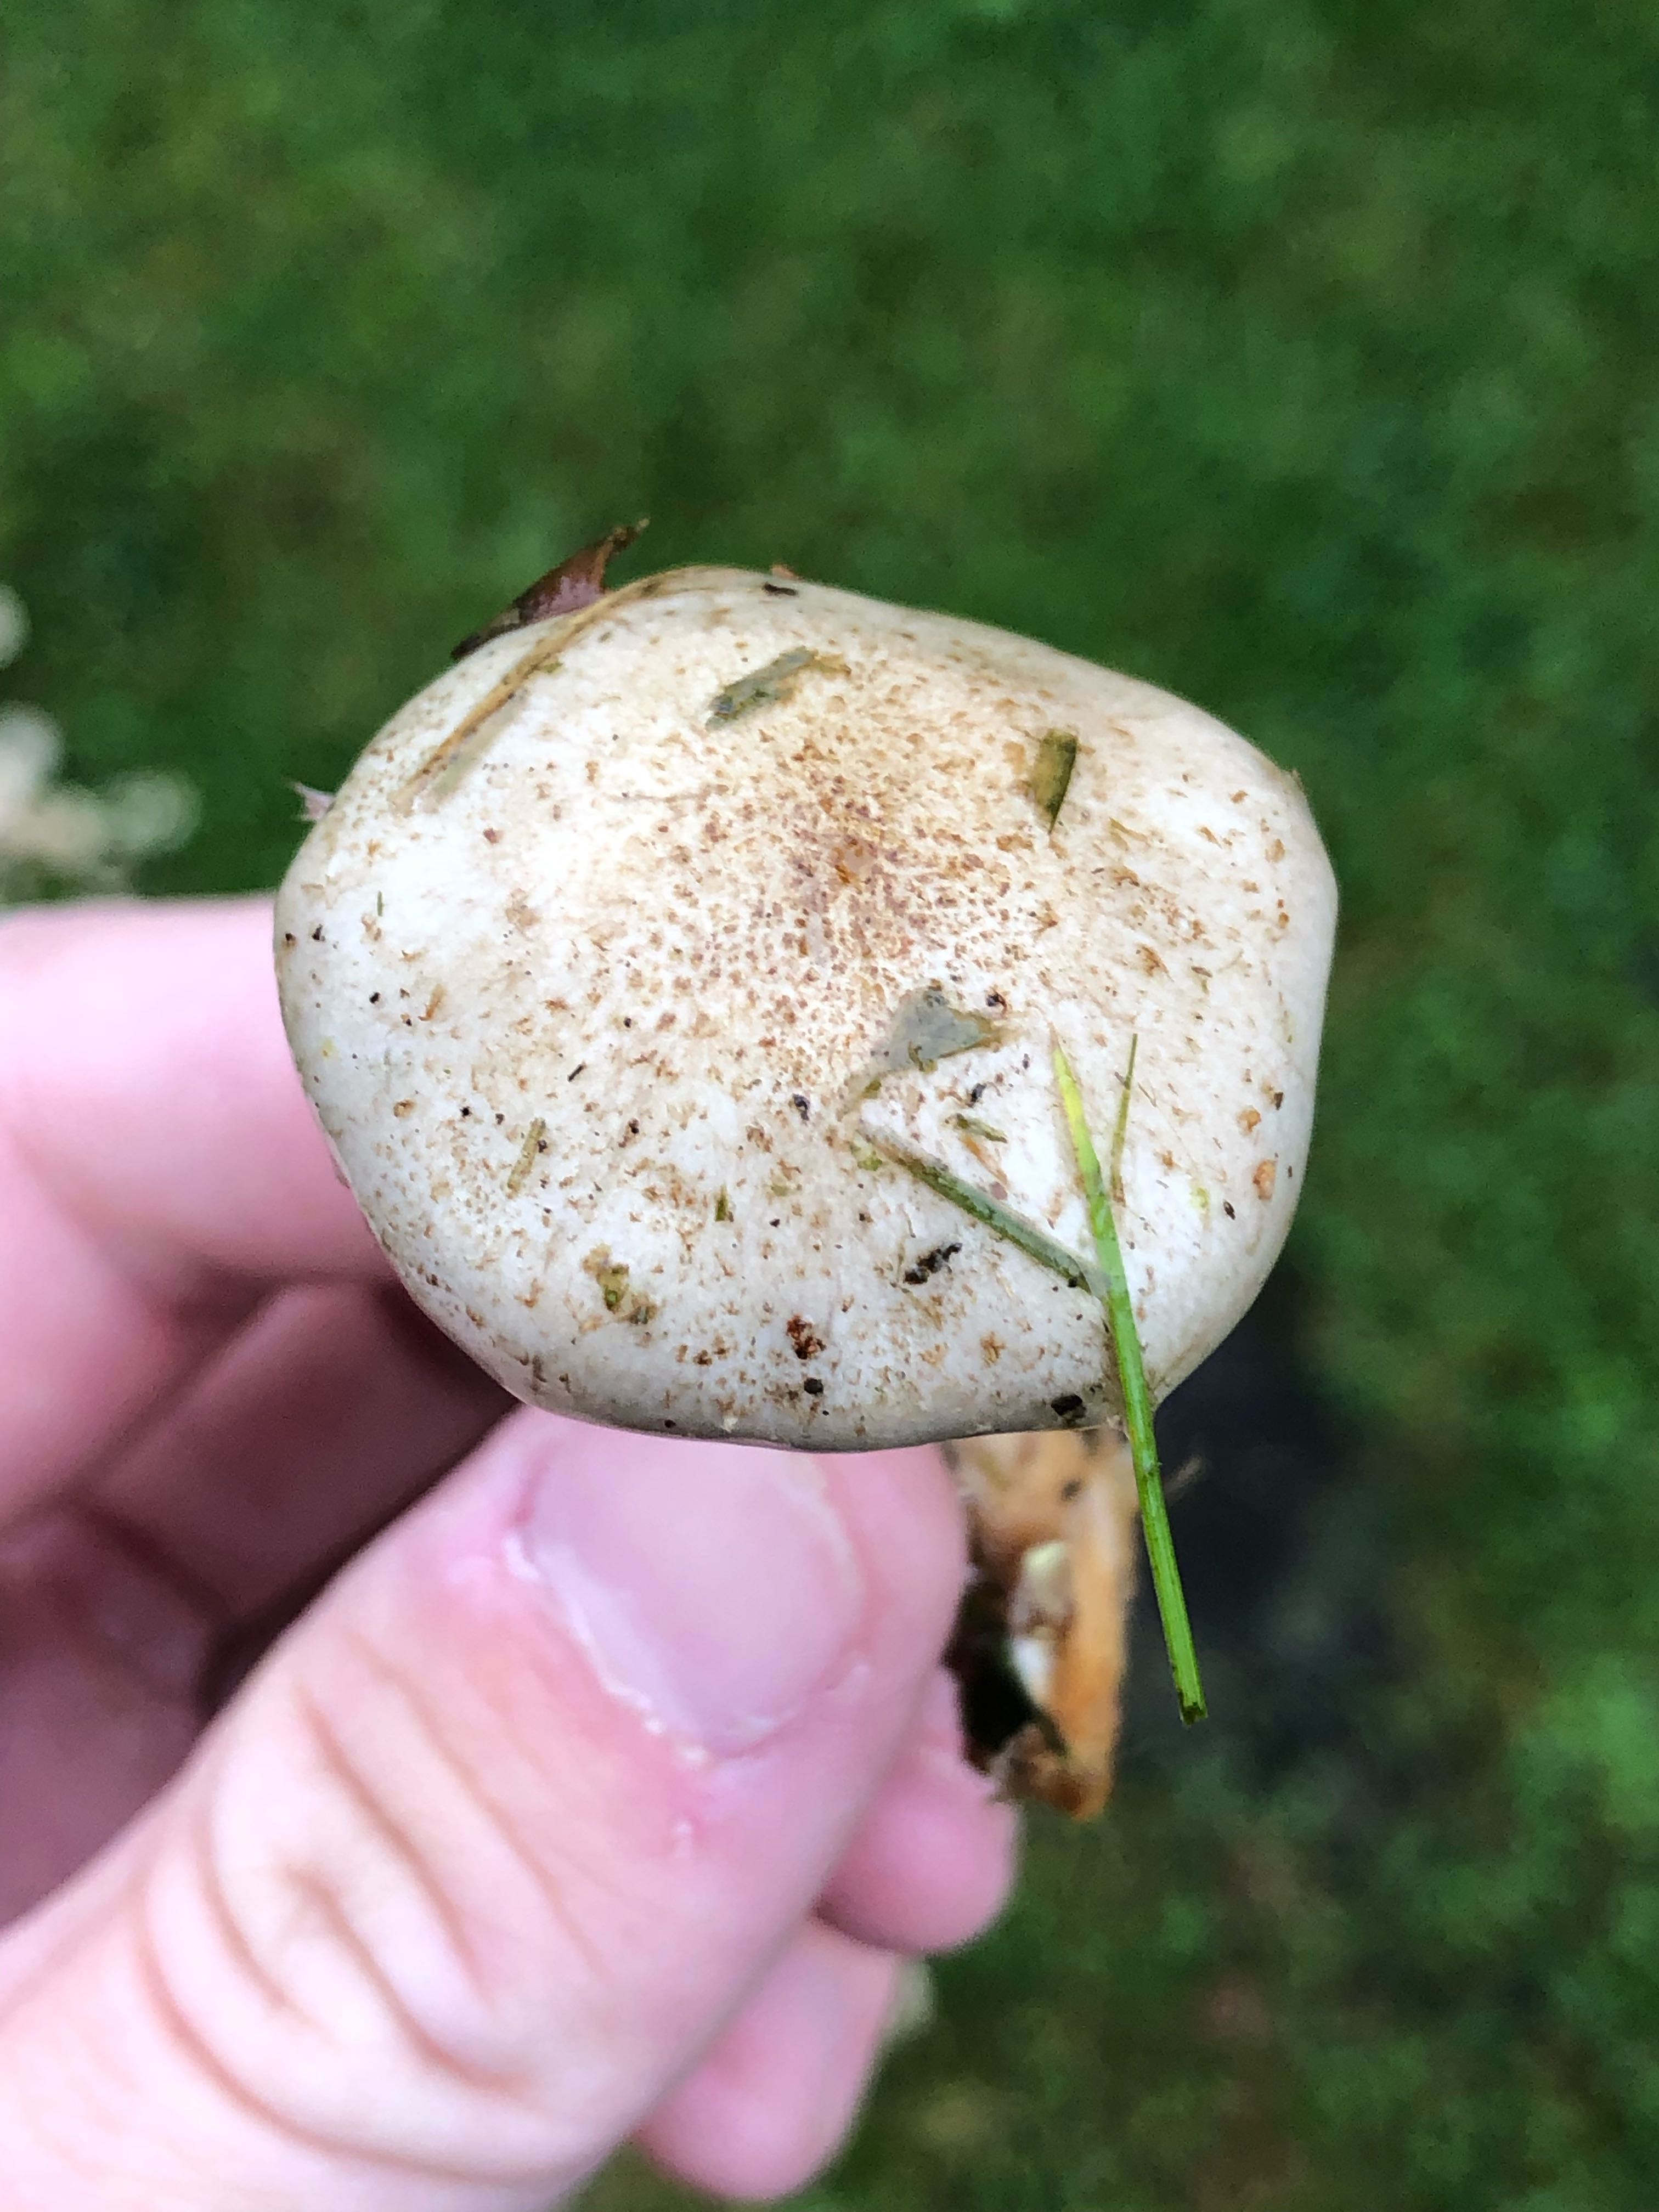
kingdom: Fungi
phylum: Basidiomycota
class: Agaricomycetes
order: Agaricales
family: Strophariaceae
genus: Pholiota
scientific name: Pholiota gummosa
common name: grøngul skælhat
